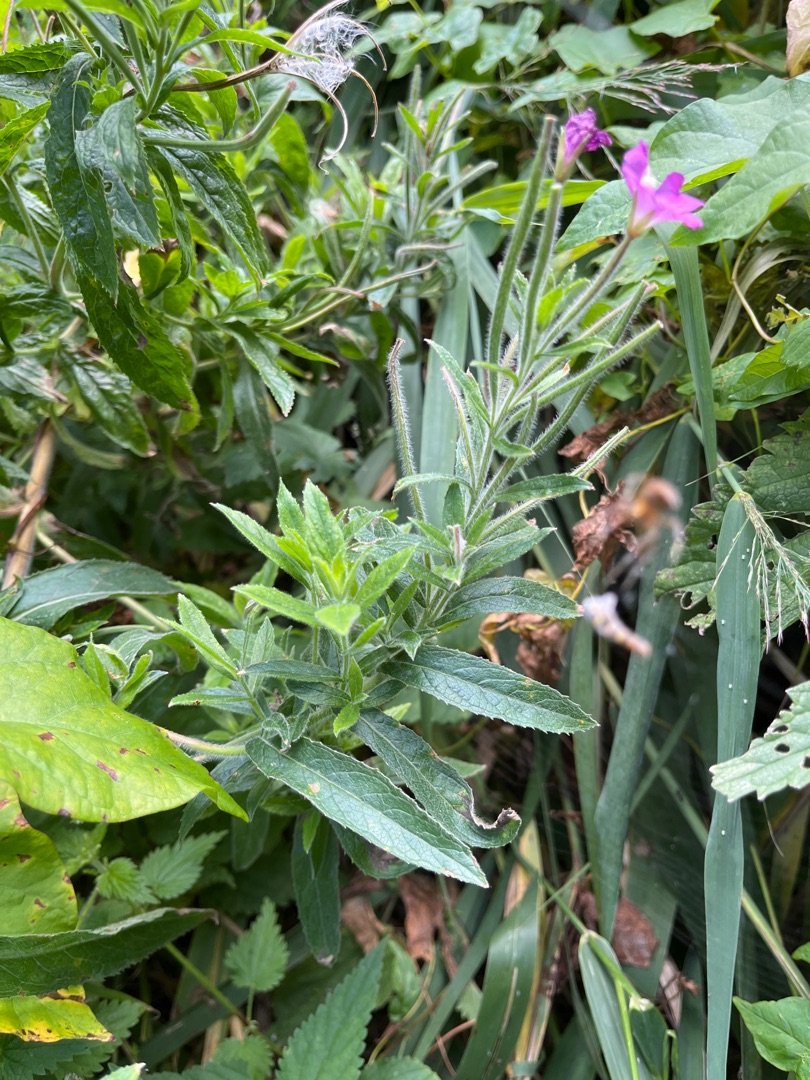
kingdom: Plantae
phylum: Tracheophyta
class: Magnoliopsida
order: Myrtales
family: Onagraceae
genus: Epilobium
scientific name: Epilobium hirsutum
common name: Lådden dueurt
